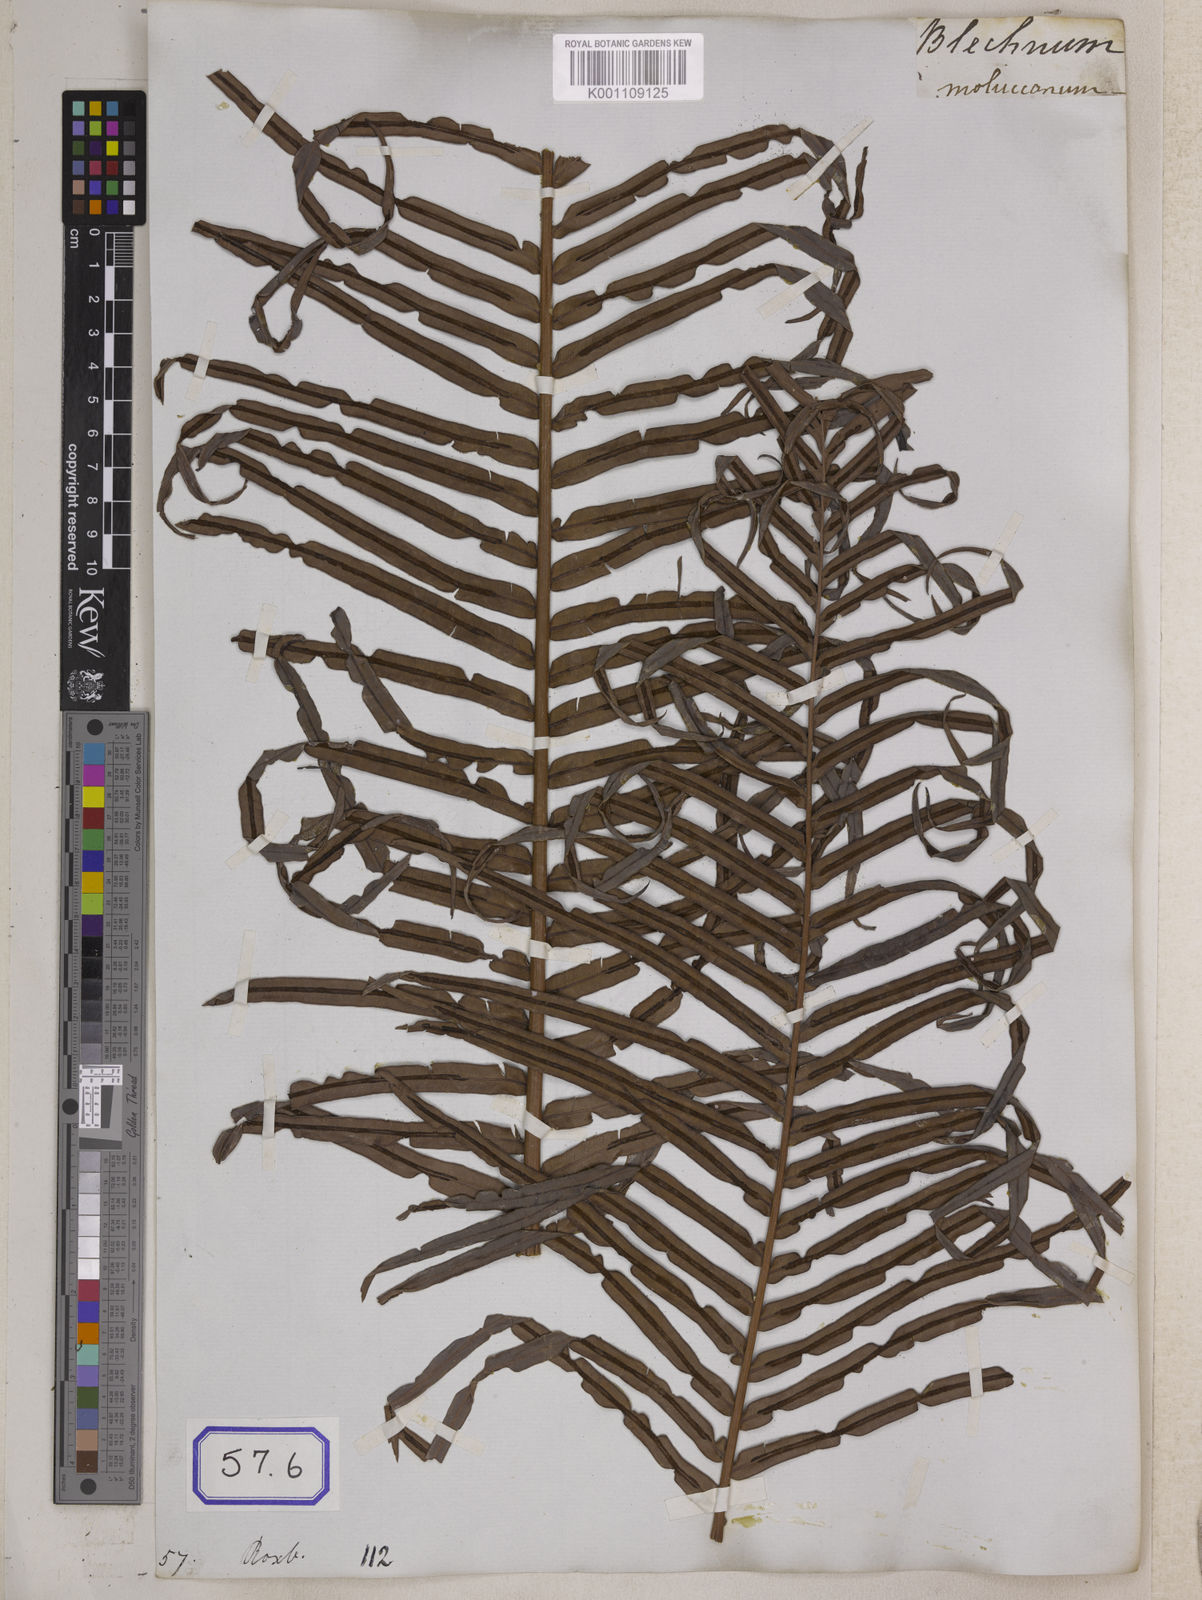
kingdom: Plantae
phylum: Tracheophyta
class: Polypodiopsida
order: Polypodiales
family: Blechnaceae
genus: Blechnopsis
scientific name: Blechnopsis orientalis
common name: Oriental blechnum
